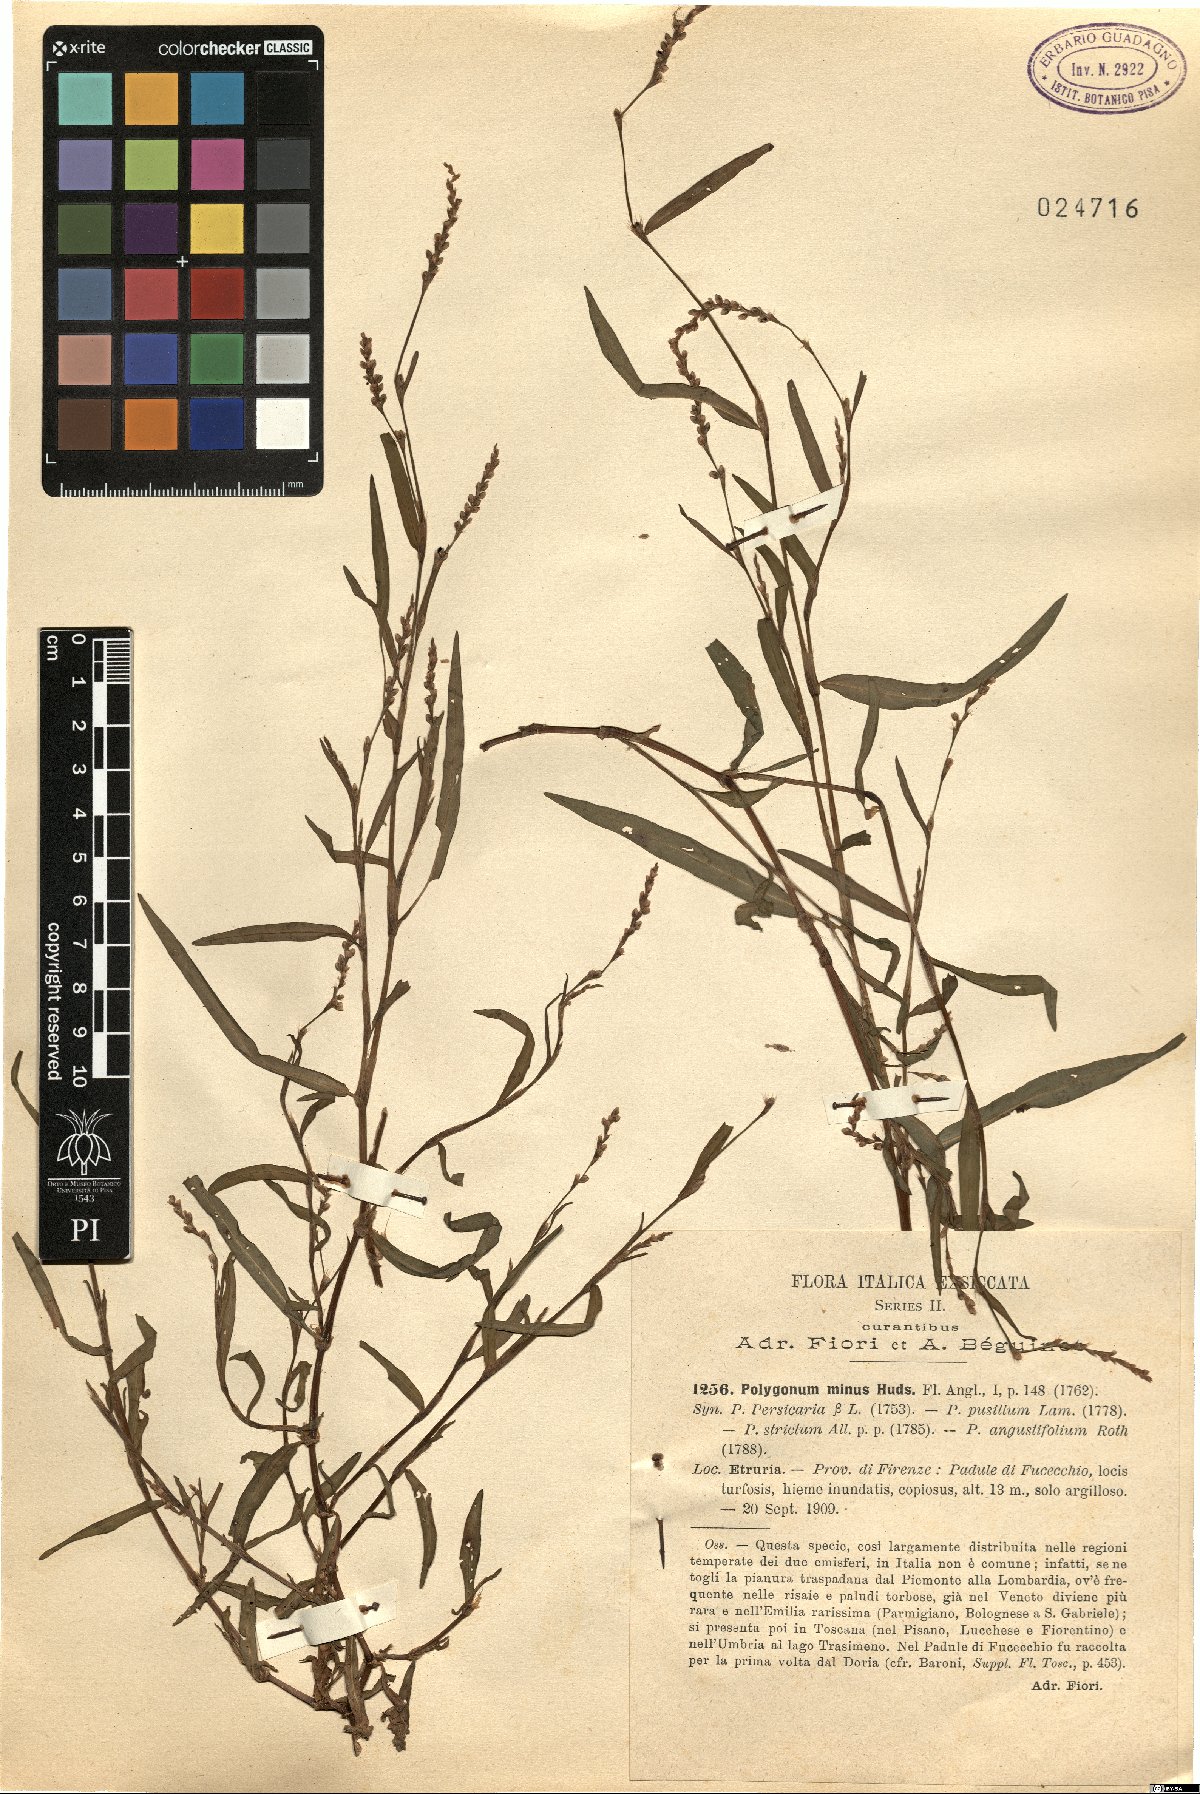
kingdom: Plantae
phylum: Tracheophyta
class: Magnoliopsida
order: Caryophyllales
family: Polygonaceae
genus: Persicaria
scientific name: Persicaria minor
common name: Small water-pepper
